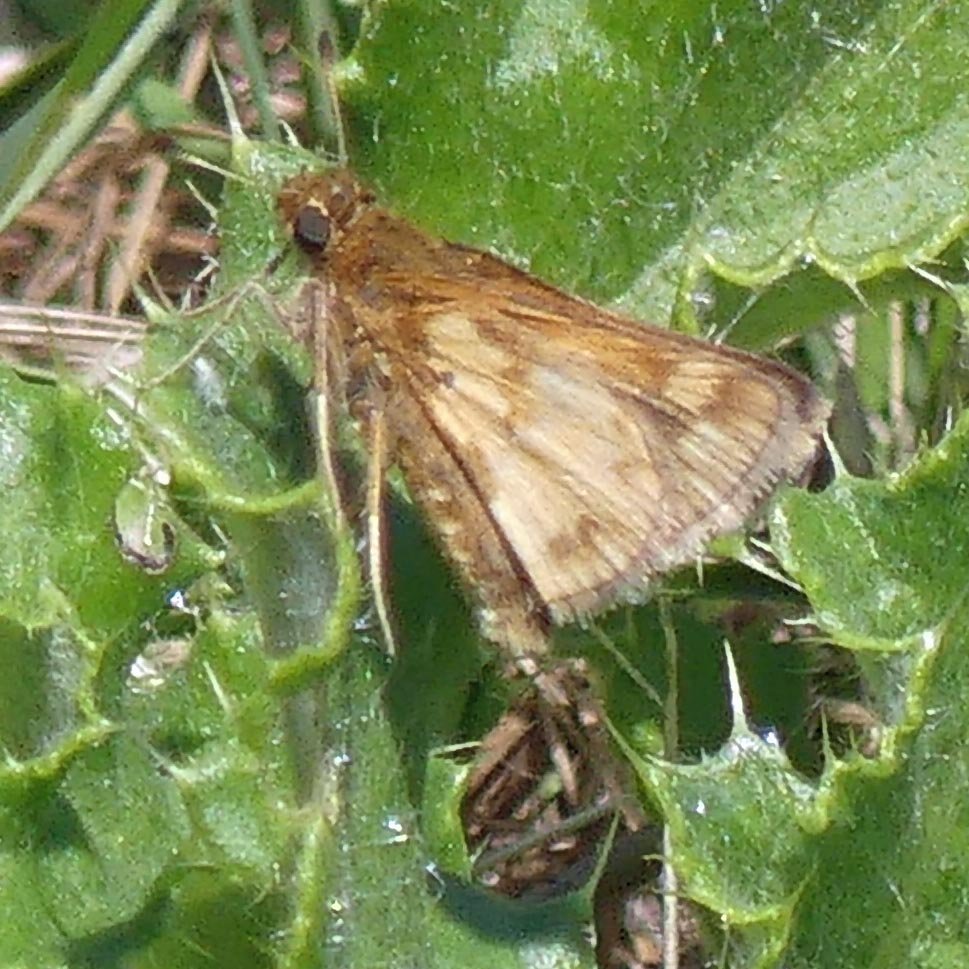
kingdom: Animalia
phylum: Arthropoda
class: Insecta
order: Lepidoptera
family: Hesperiidae
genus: Polites
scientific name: Polites coras
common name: Peck's Skipper
